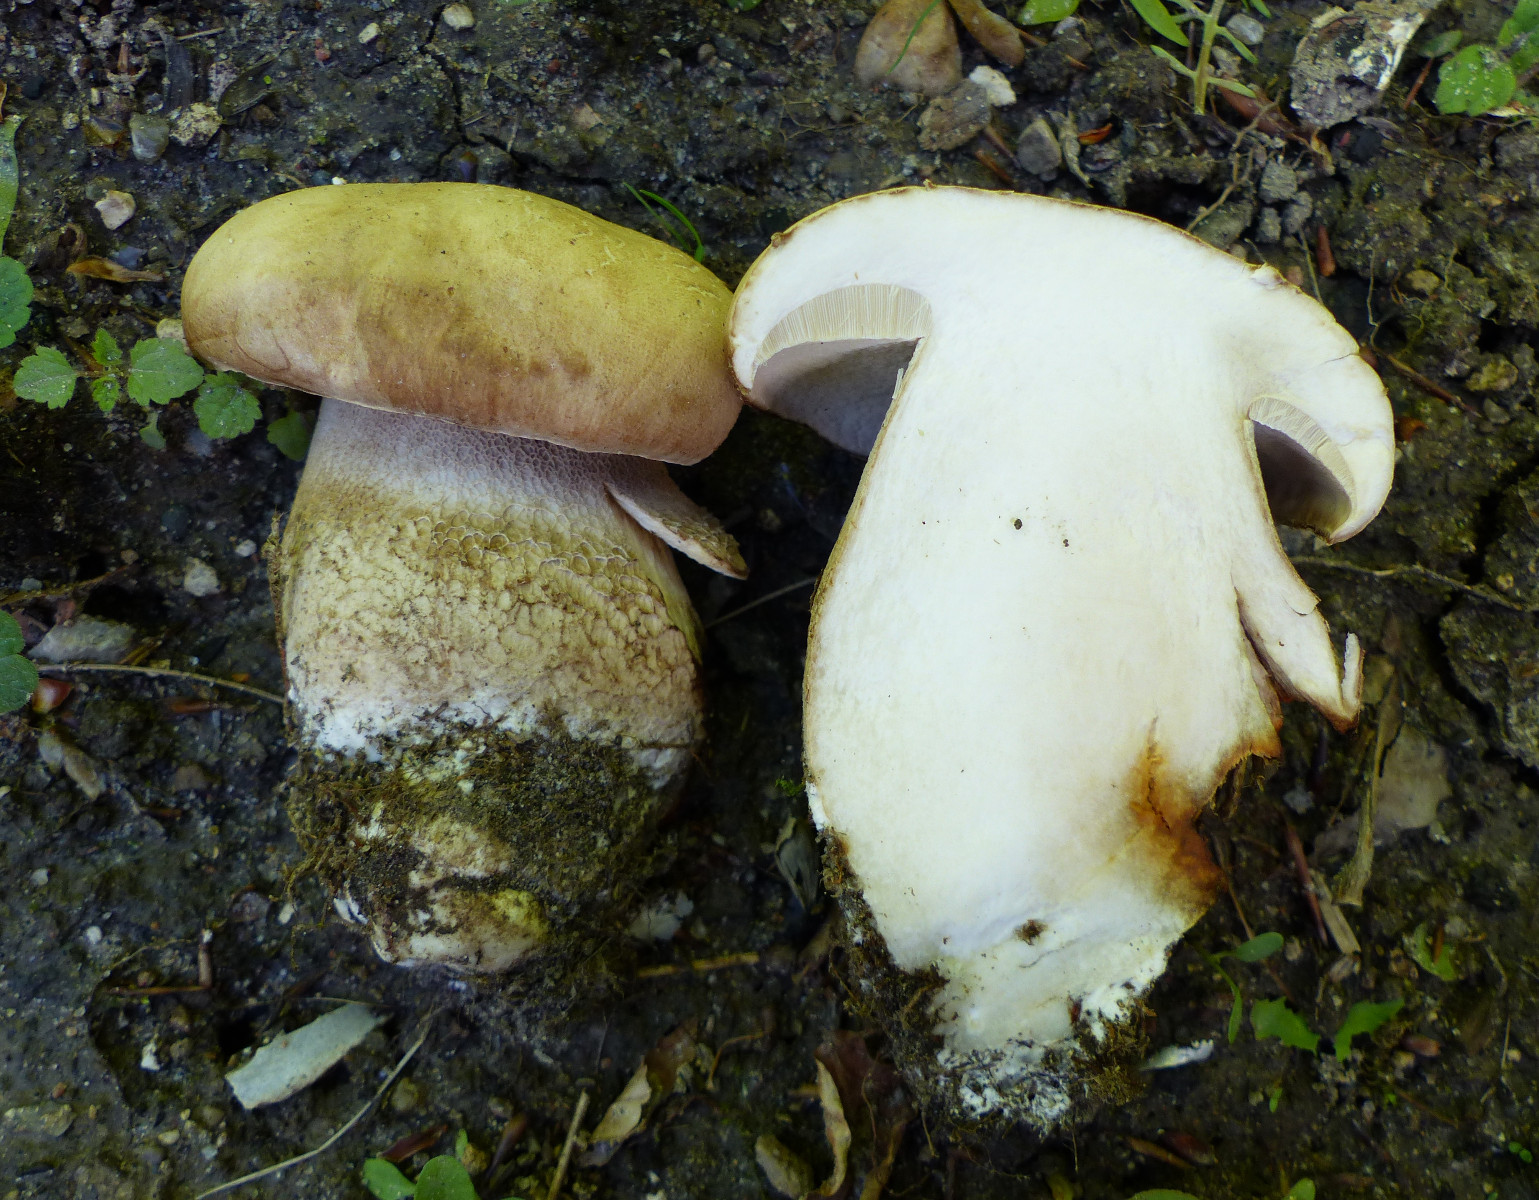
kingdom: Fungi
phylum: Basidiomycota
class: Agaricomycetes
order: Boletales
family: Boletaceae
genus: Boletus
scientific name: Boletus reticulatus
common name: sommer-rørhat
